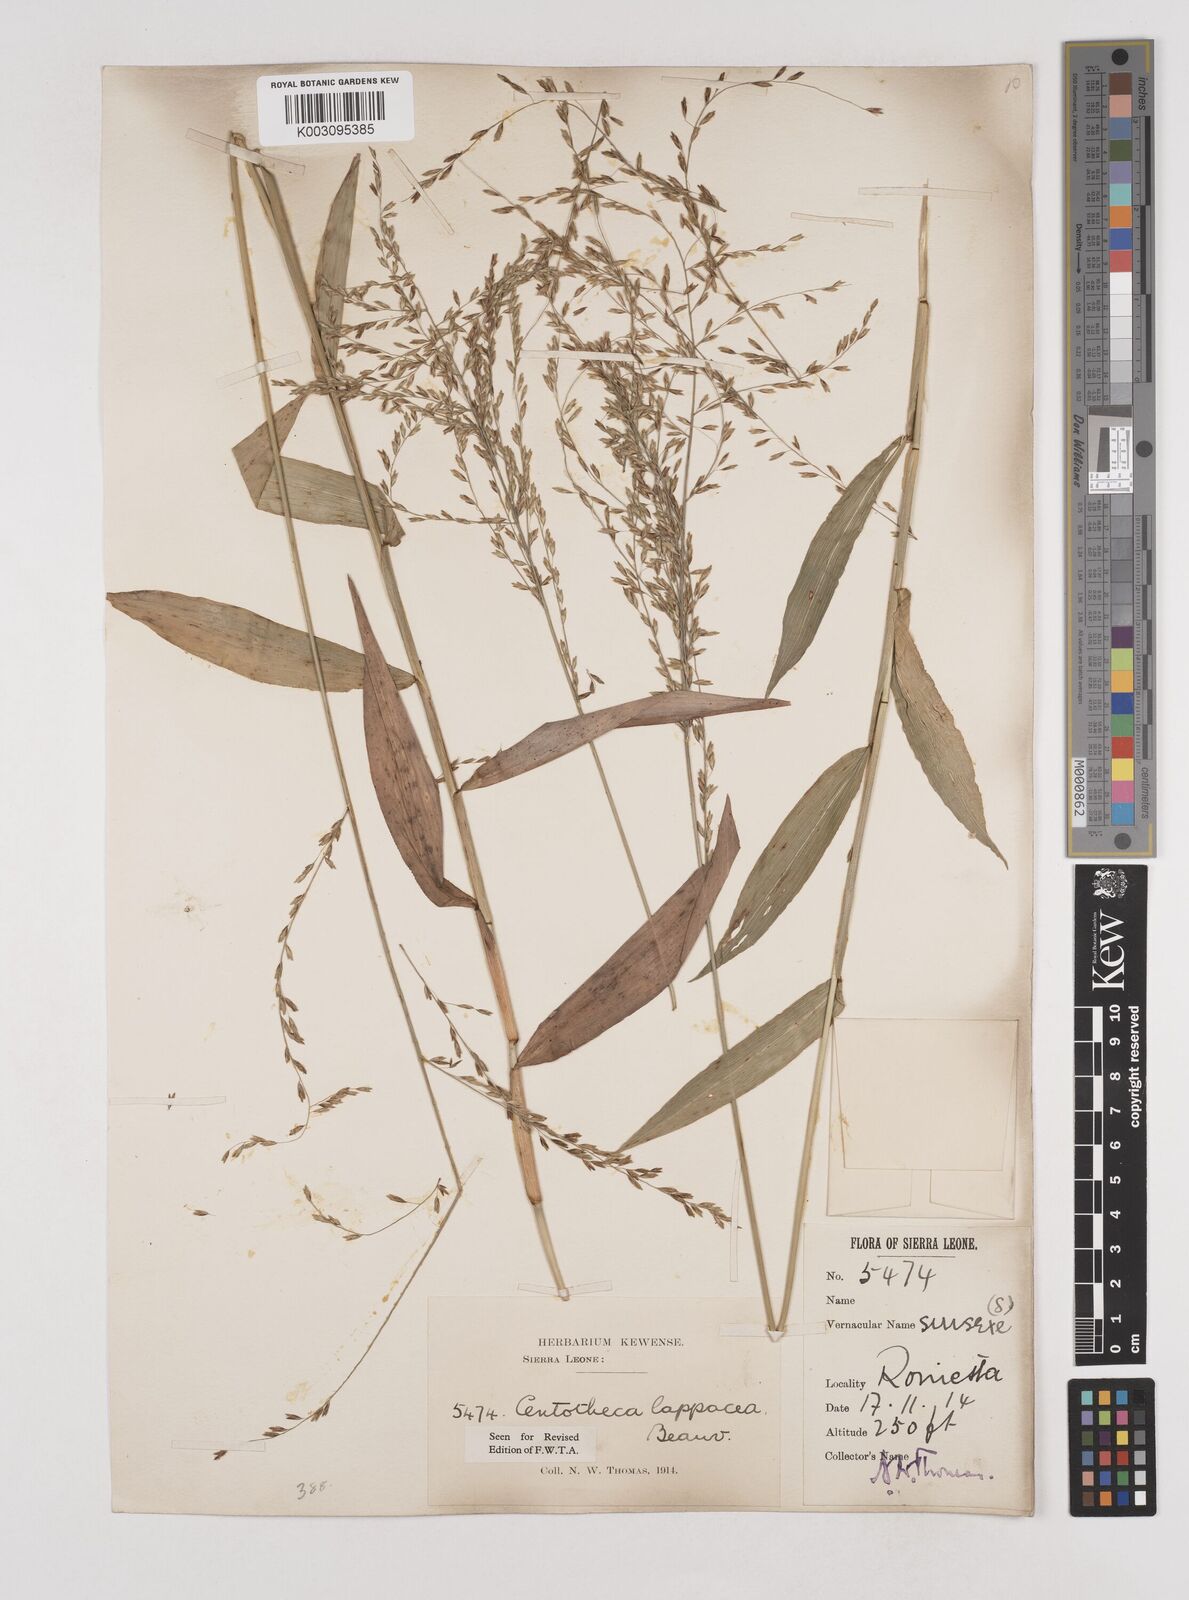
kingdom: Plantae
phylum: Tracheophyta
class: Liliopsida
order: Poales
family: Poaceae
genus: Centotheca
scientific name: Centotheca lappacea
